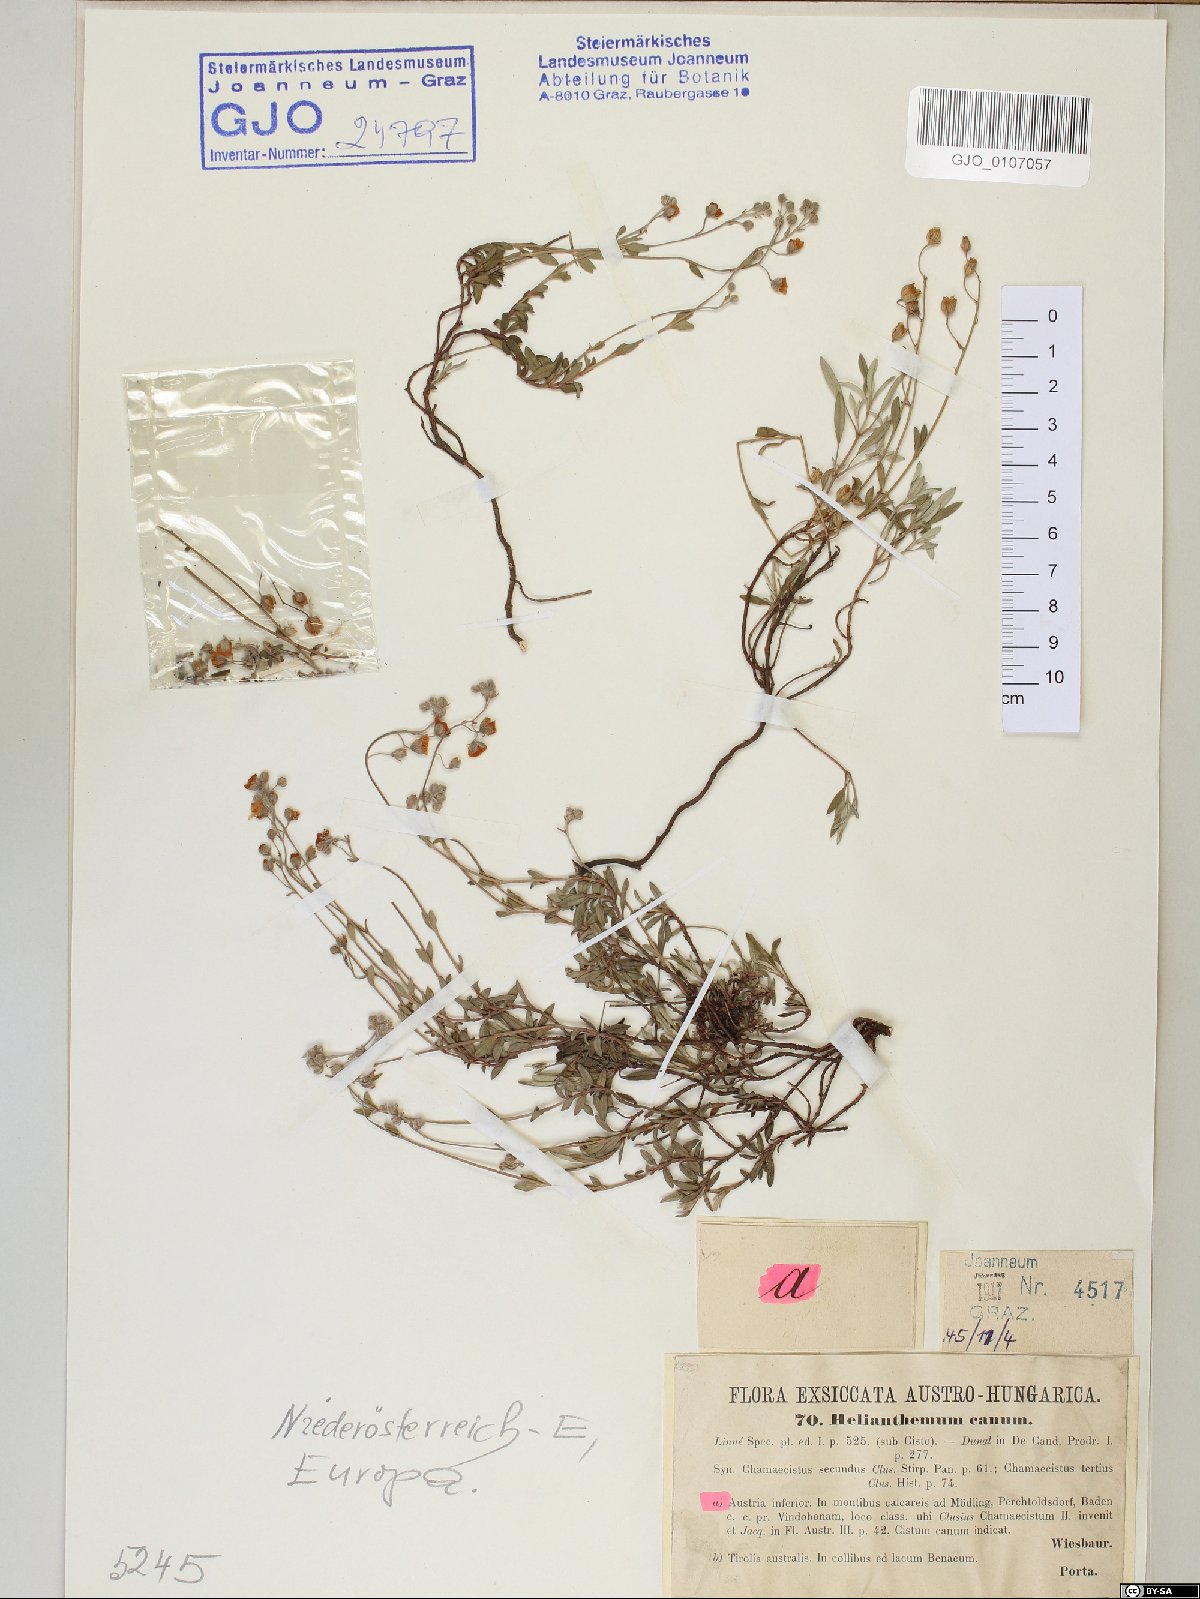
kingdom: Plantae
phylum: Tracheophyta
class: Magnoliopsida
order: Malvales
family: Cistaceae
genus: Helianthemum
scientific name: Helianthemum canum
